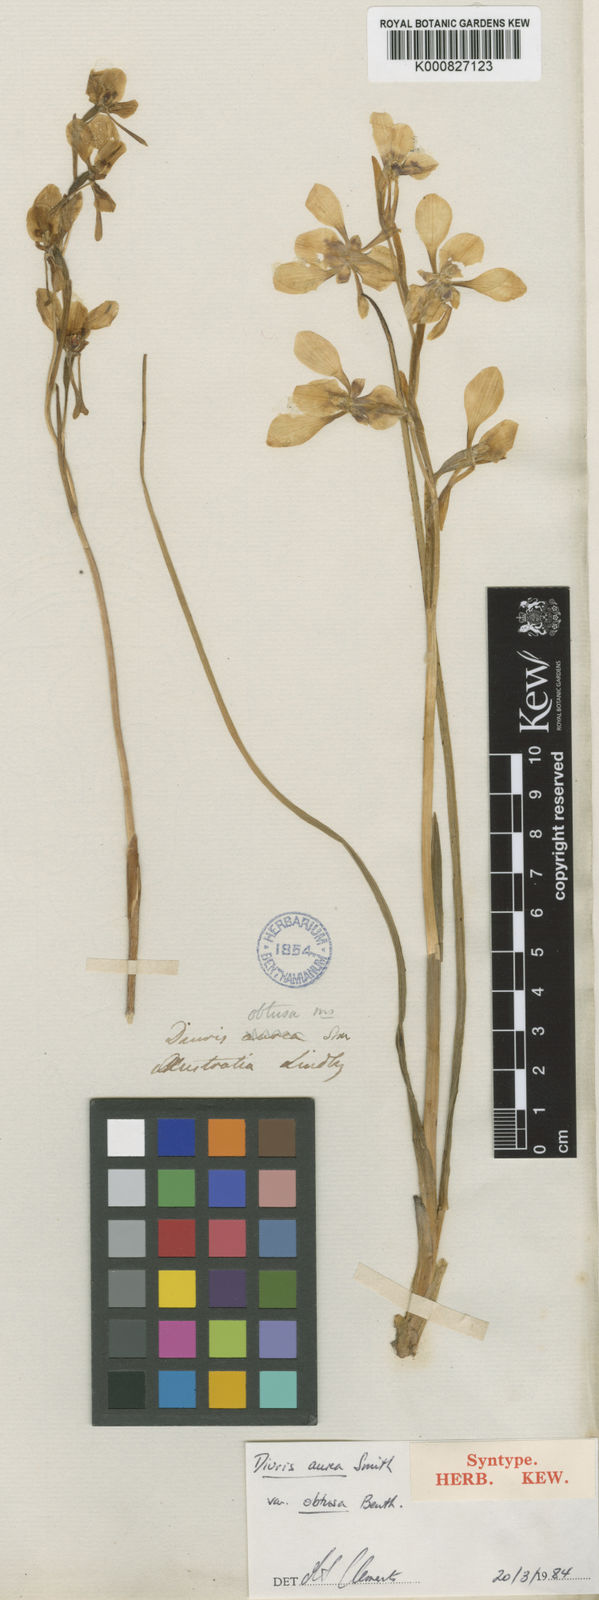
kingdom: Plantae
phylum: Tracheophyta
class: Liliopsida
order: Asparagales
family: Orchidaceae
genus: Diuris
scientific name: Diuris aurea
